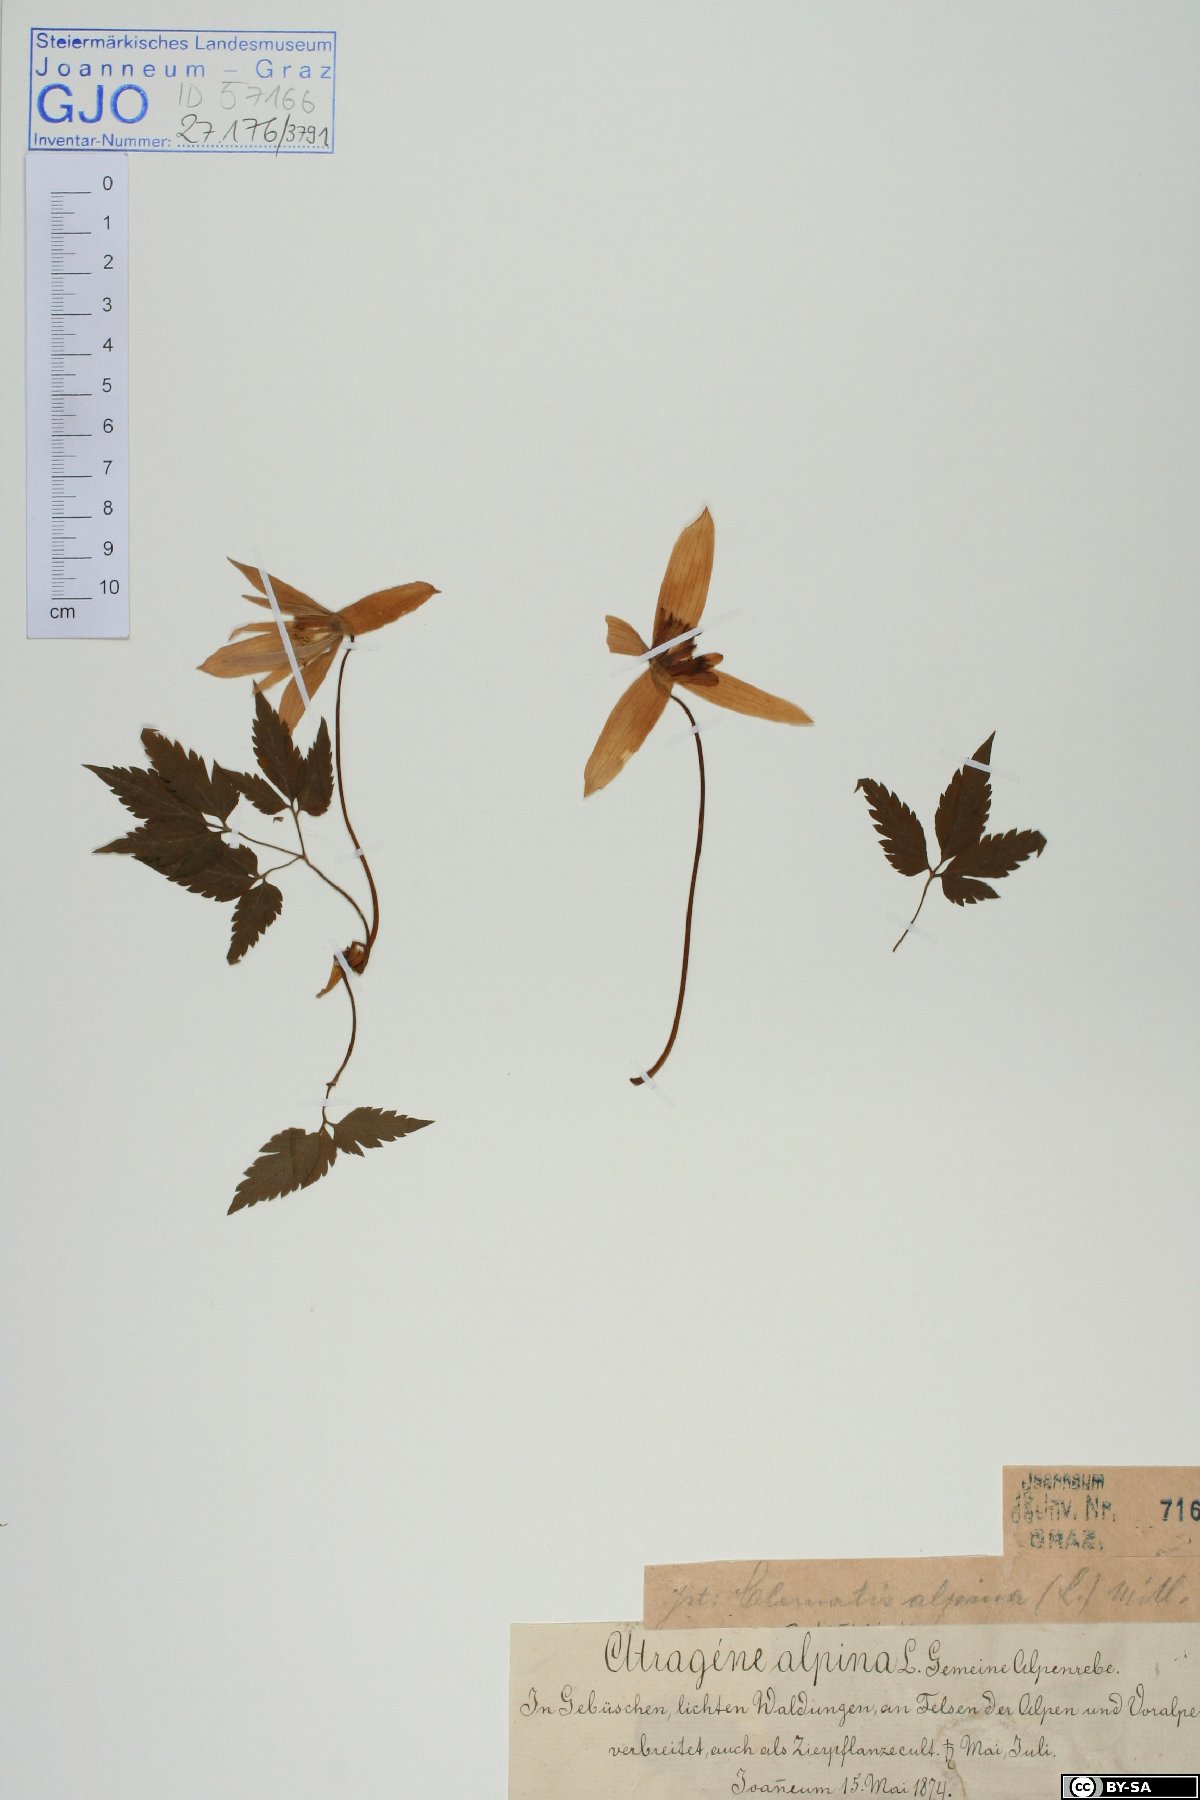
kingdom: Plantae
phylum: Tracheophyta
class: Magnoliopsida
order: Ranunculales
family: Ranunculaceae
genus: Clematis
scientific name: Clematis alpina
